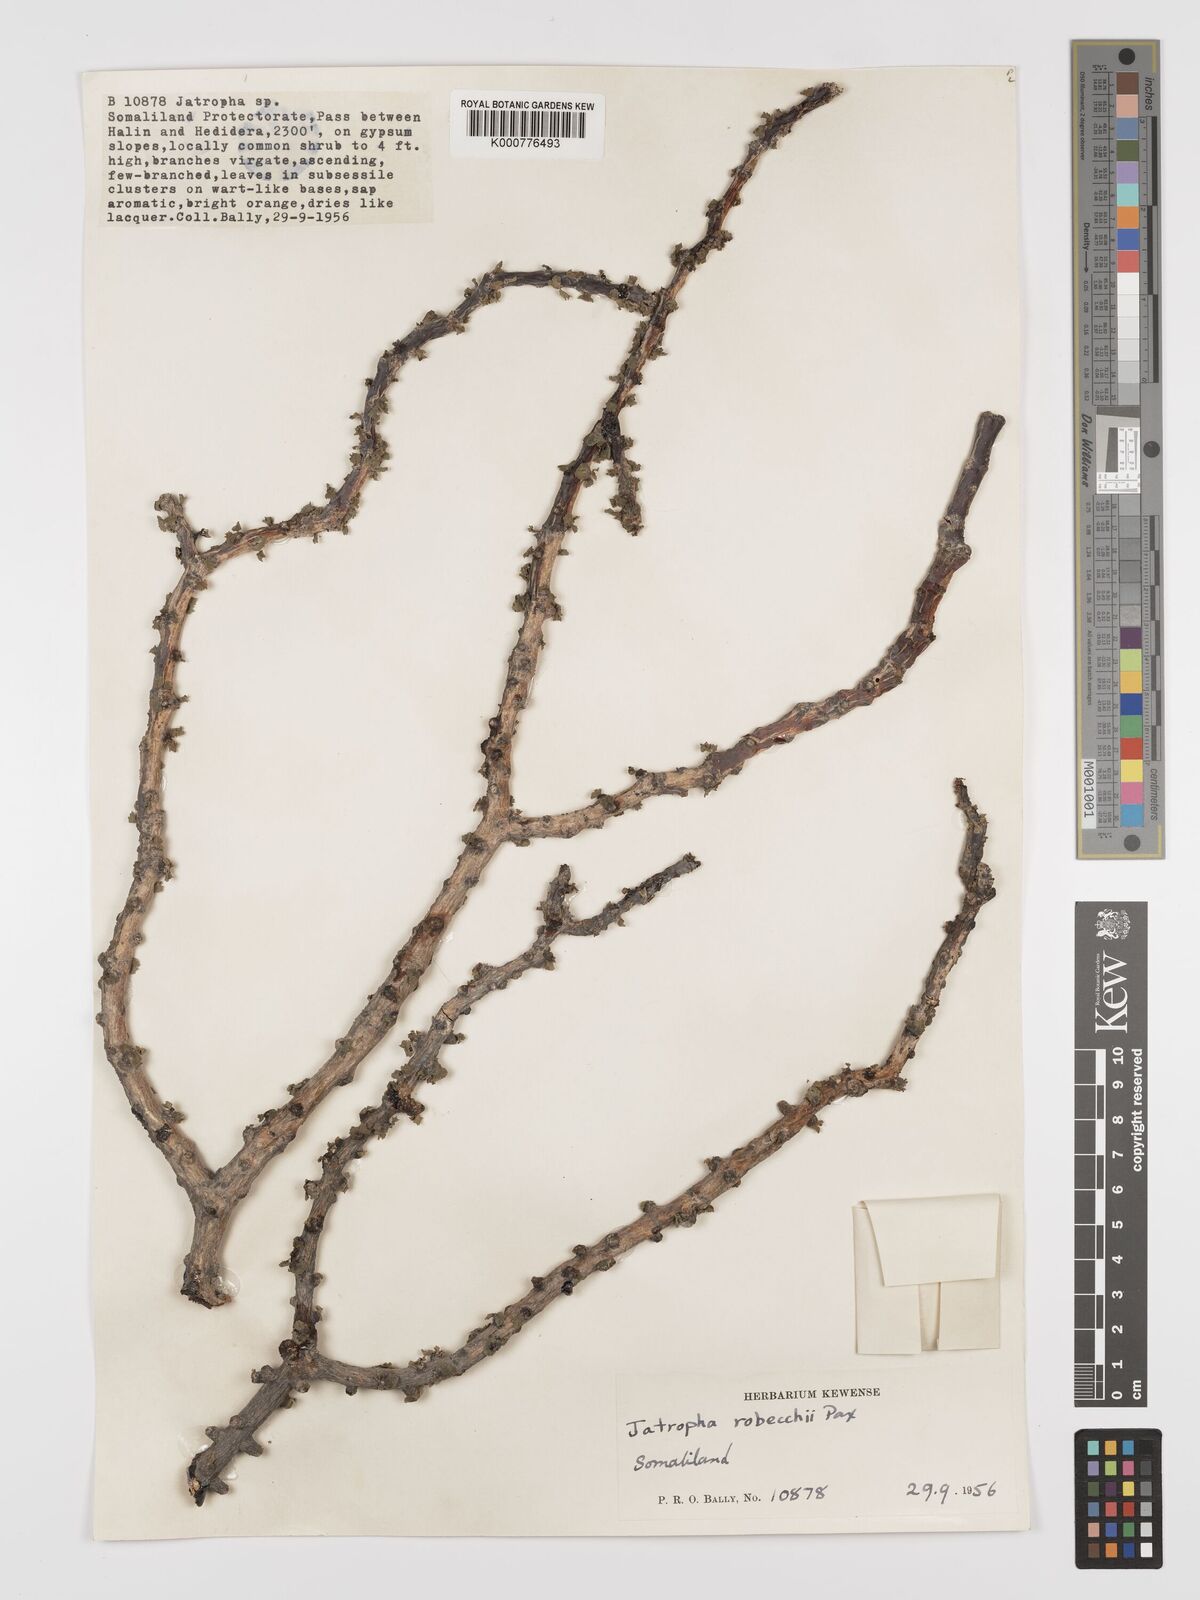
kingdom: Plantae
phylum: Tracheophyta
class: Magnoliopsida
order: Malpighiales
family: Euphorbiaceae
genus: Jatropha
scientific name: Jatropha robecchii
